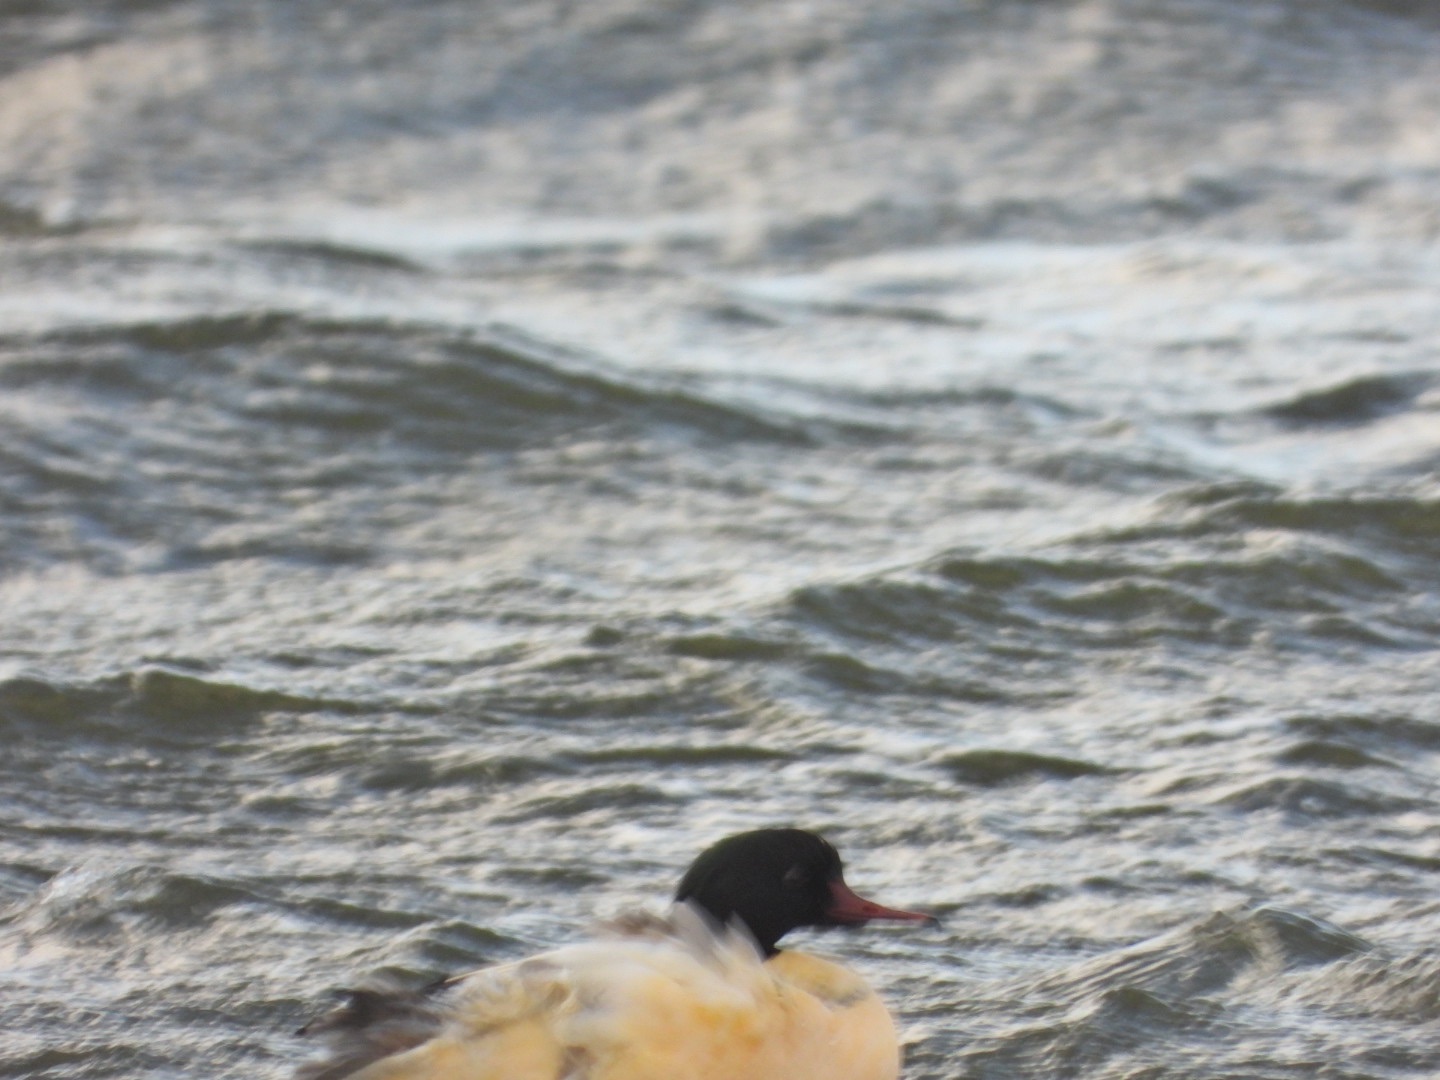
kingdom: Animalia
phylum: Chordata
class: Aves
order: Anseriformes
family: Anatidae
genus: Mergus
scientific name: Mergus merganser
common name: Stor skallesluger
